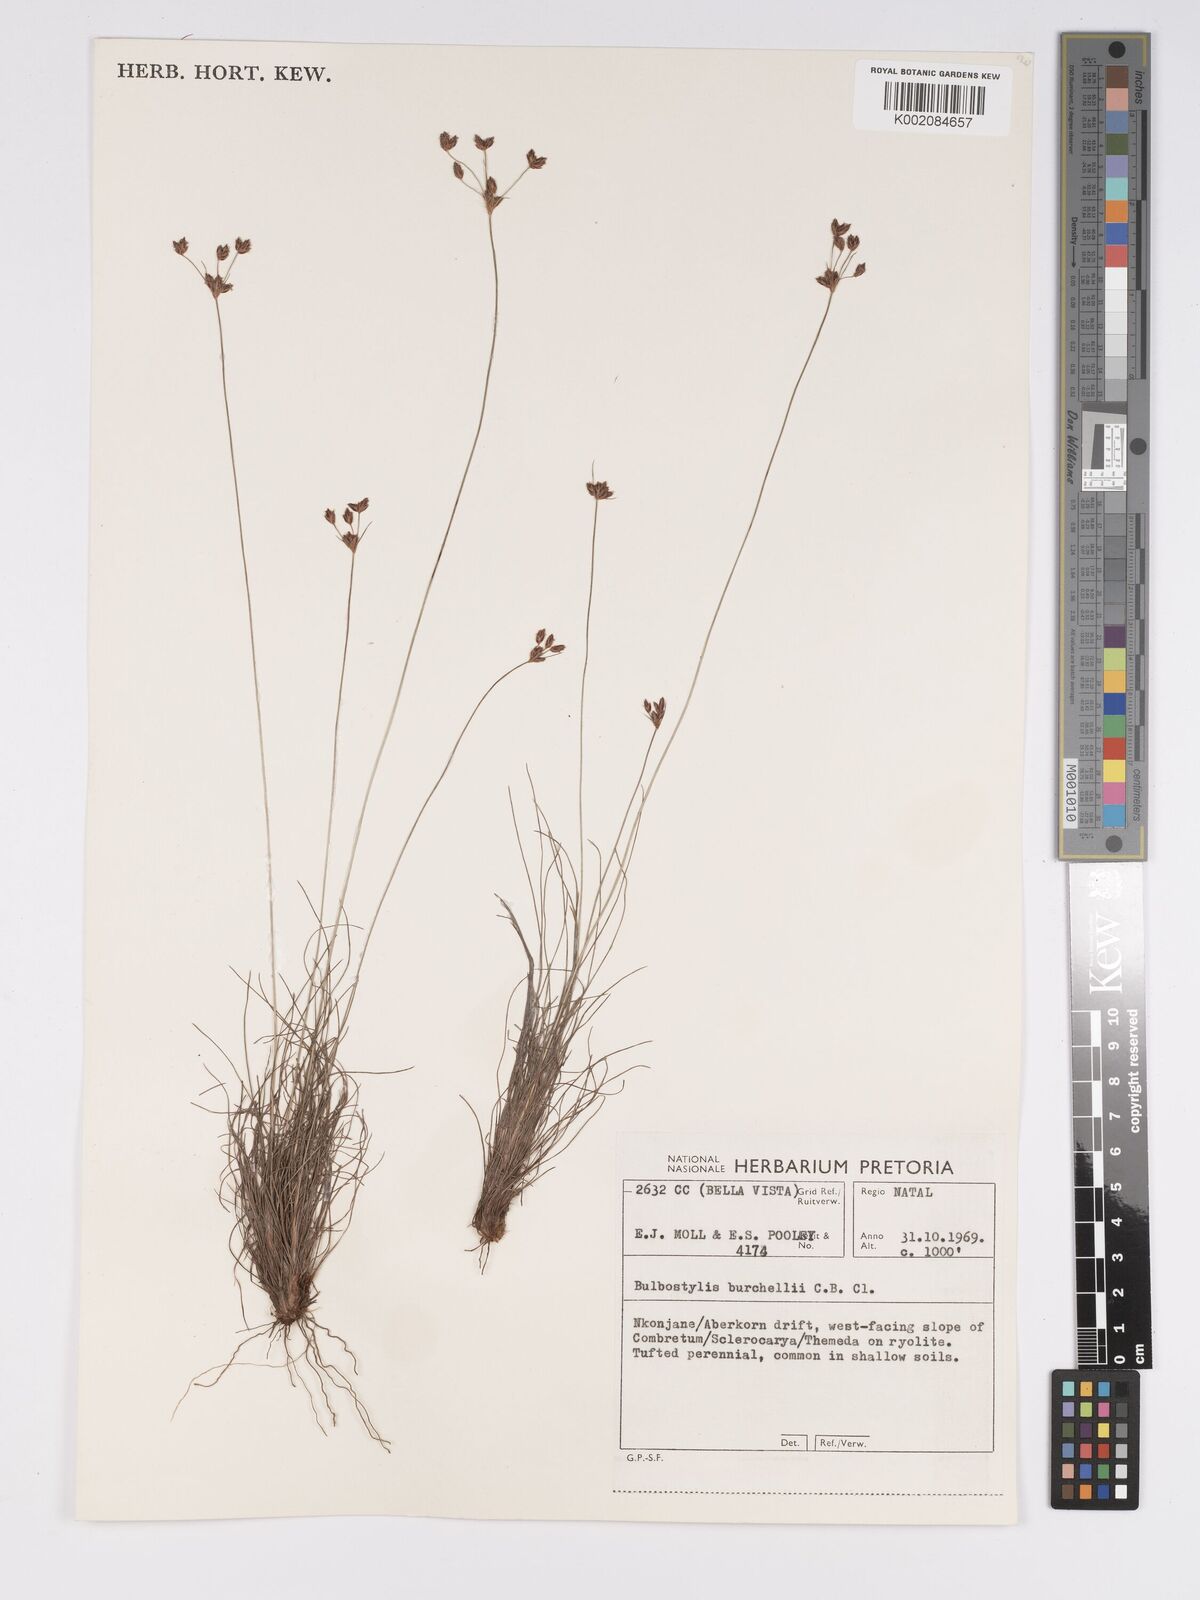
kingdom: Plantae
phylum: Tracheophyta
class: Liliopsida
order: Poales
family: Cyperaceae
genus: Bulbostylis
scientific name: Bulbostylis burchellii
